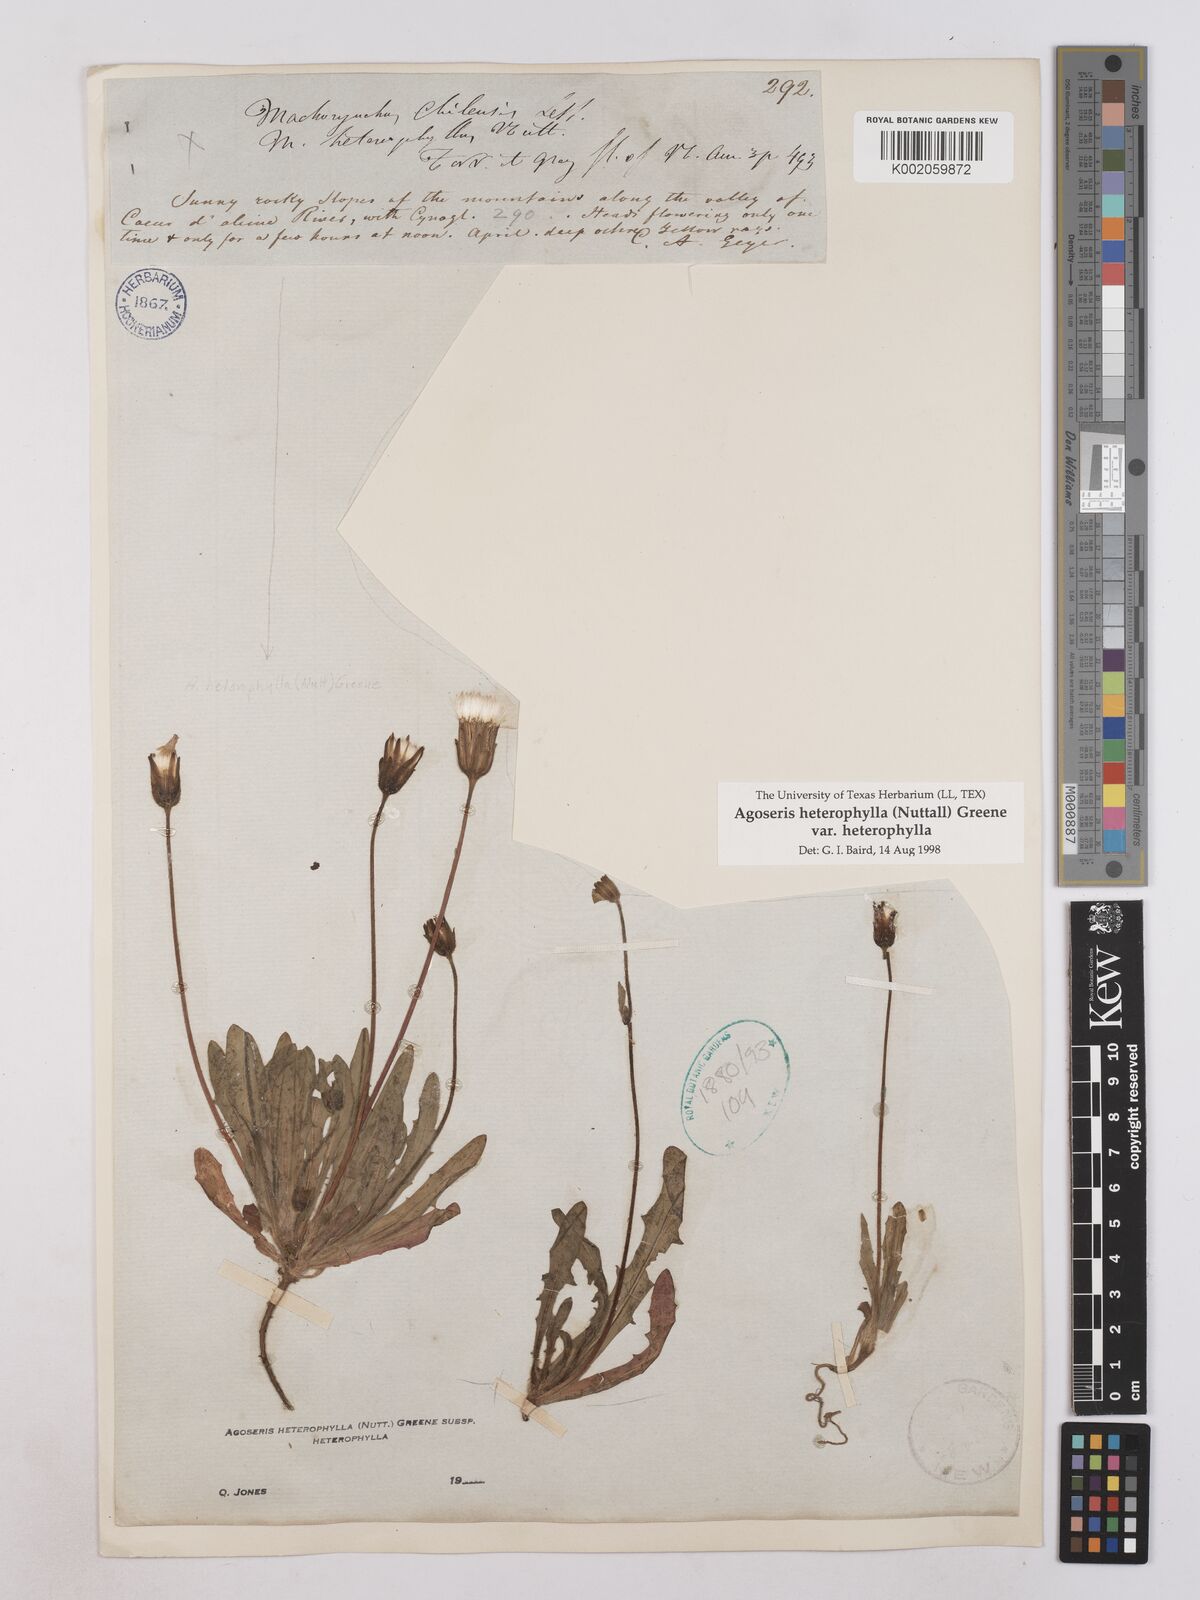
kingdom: Plantae
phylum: Tracheophyta
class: Magnoliopsida
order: Asterales
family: Asteraceae
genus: Agoseris
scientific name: Agoseris heterophylla
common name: Annual agoseris
